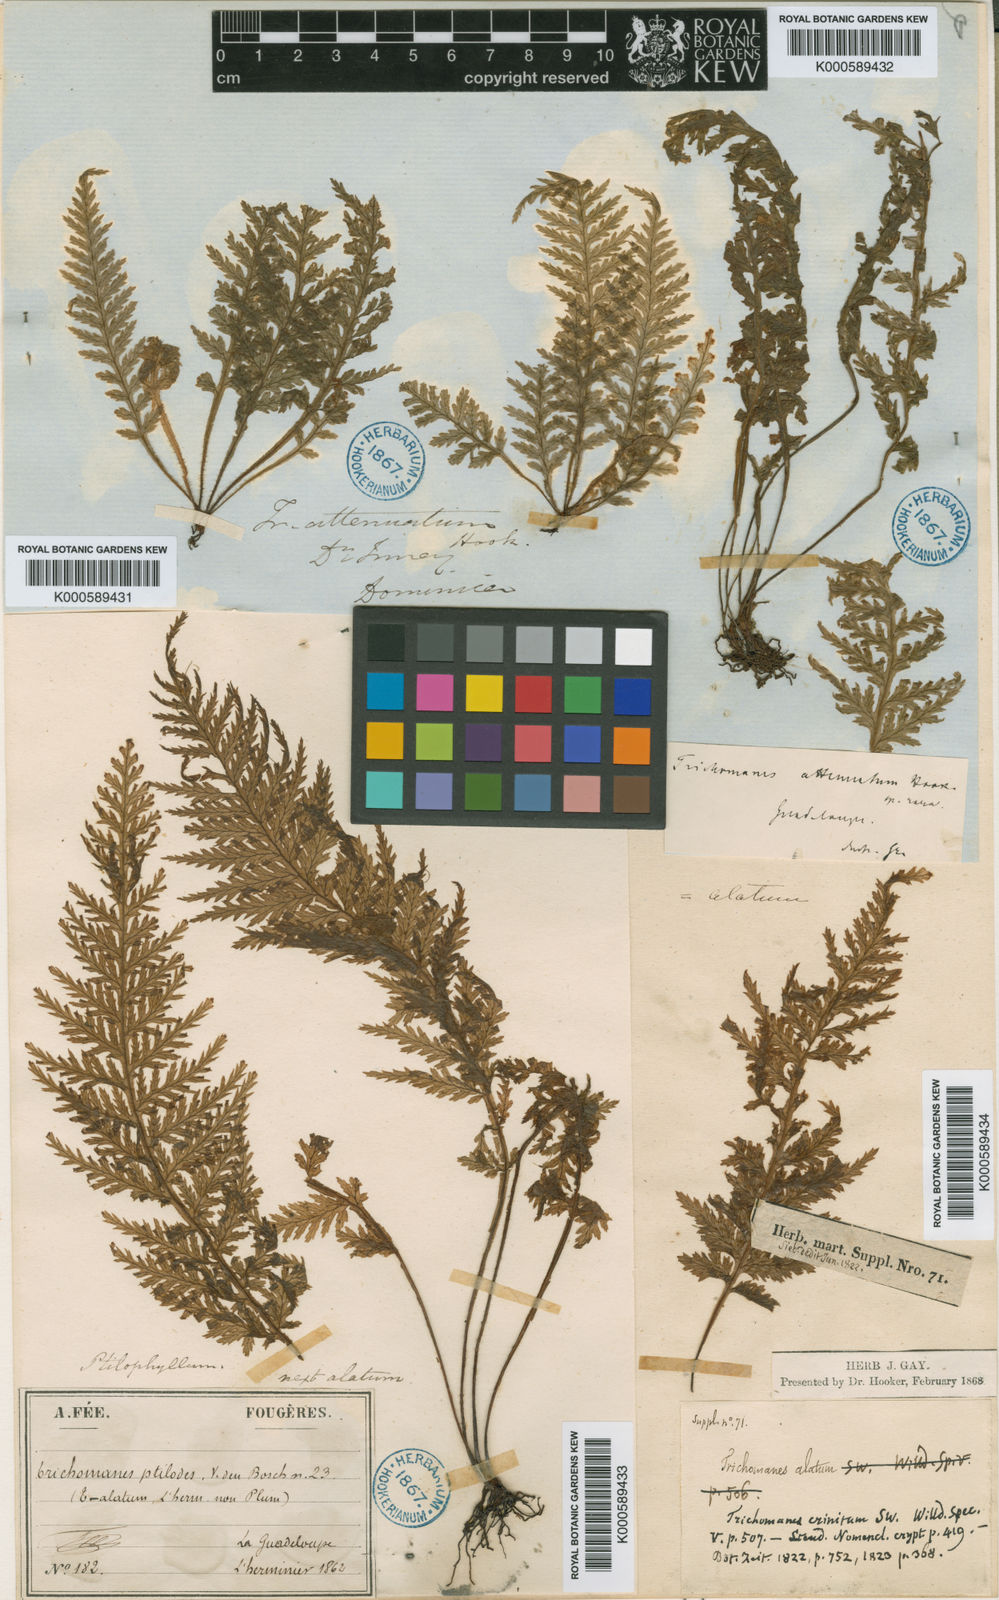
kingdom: Plantae
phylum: Tracheophyta
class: Polypodiopsida
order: Hymenophyllales
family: Hymenophyllaceae
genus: Trichomanes
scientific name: Trichomanes alatum
